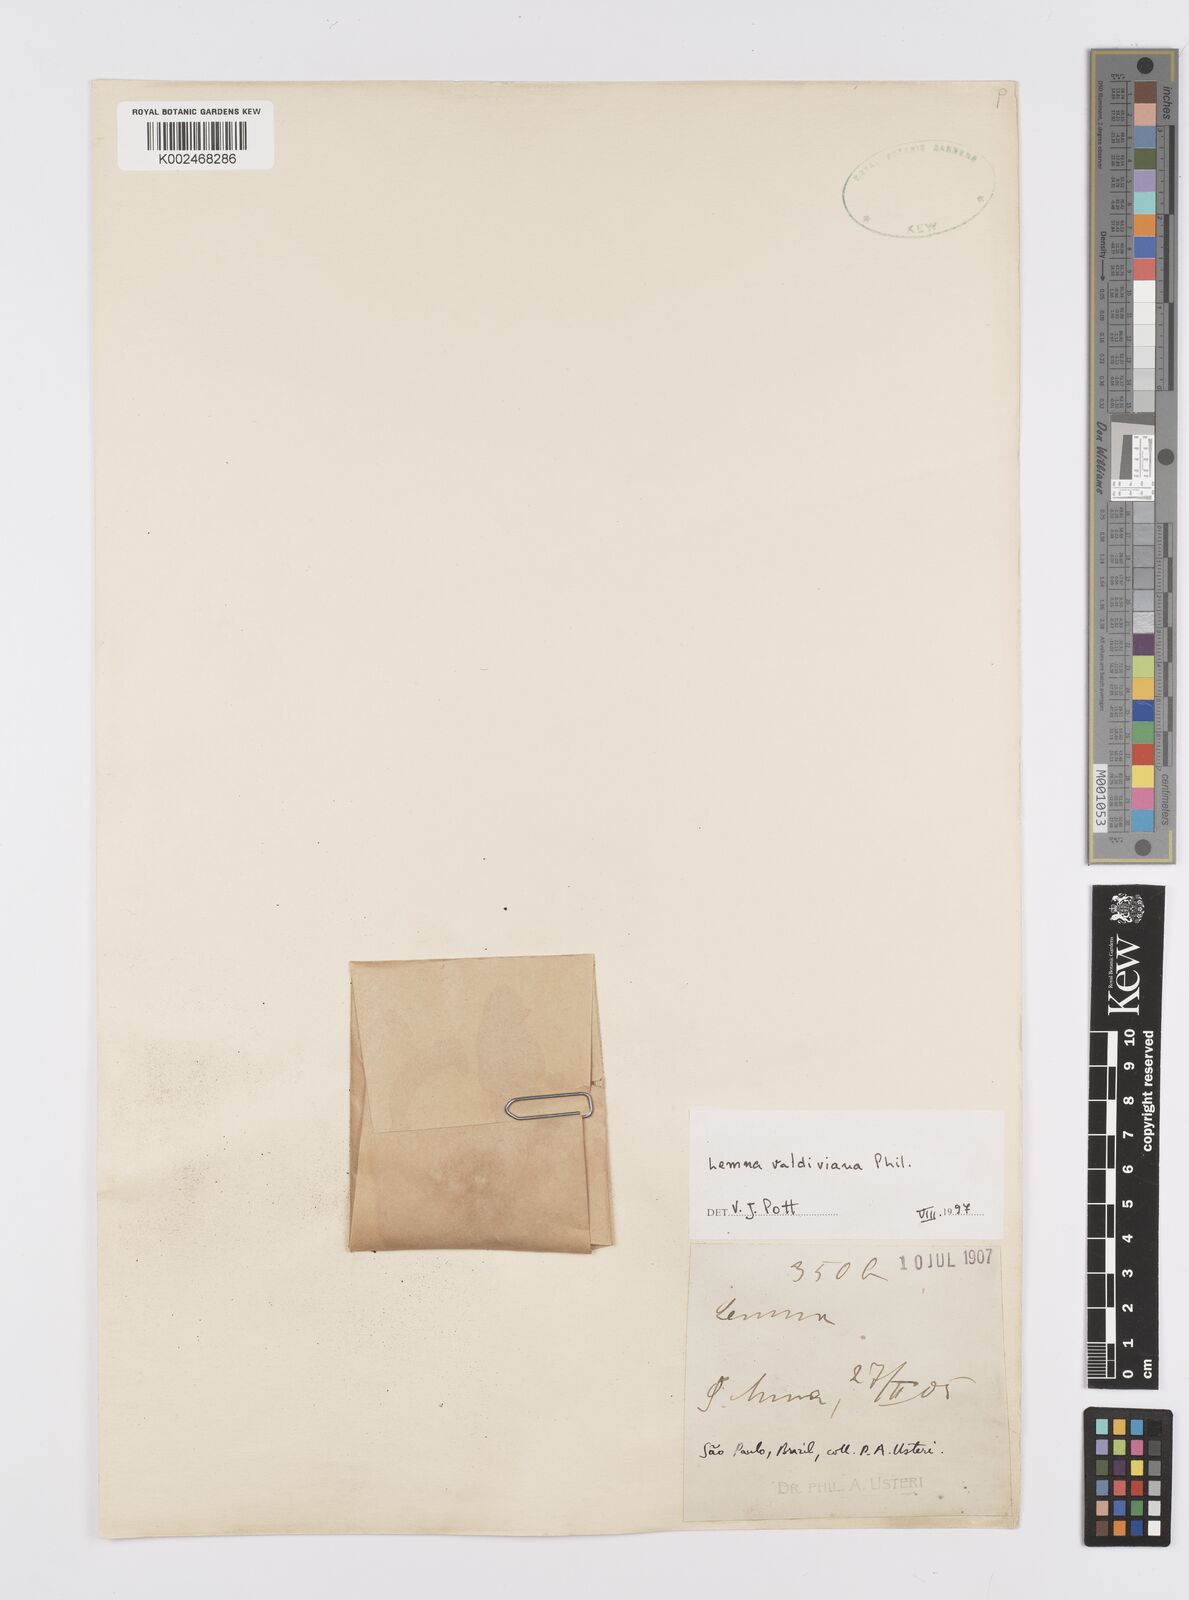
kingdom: Plantae
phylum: Tracheophyta
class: Liliopsida
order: Alismatales
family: Araceae
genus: Lemna
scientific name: Lemna valdiviana
